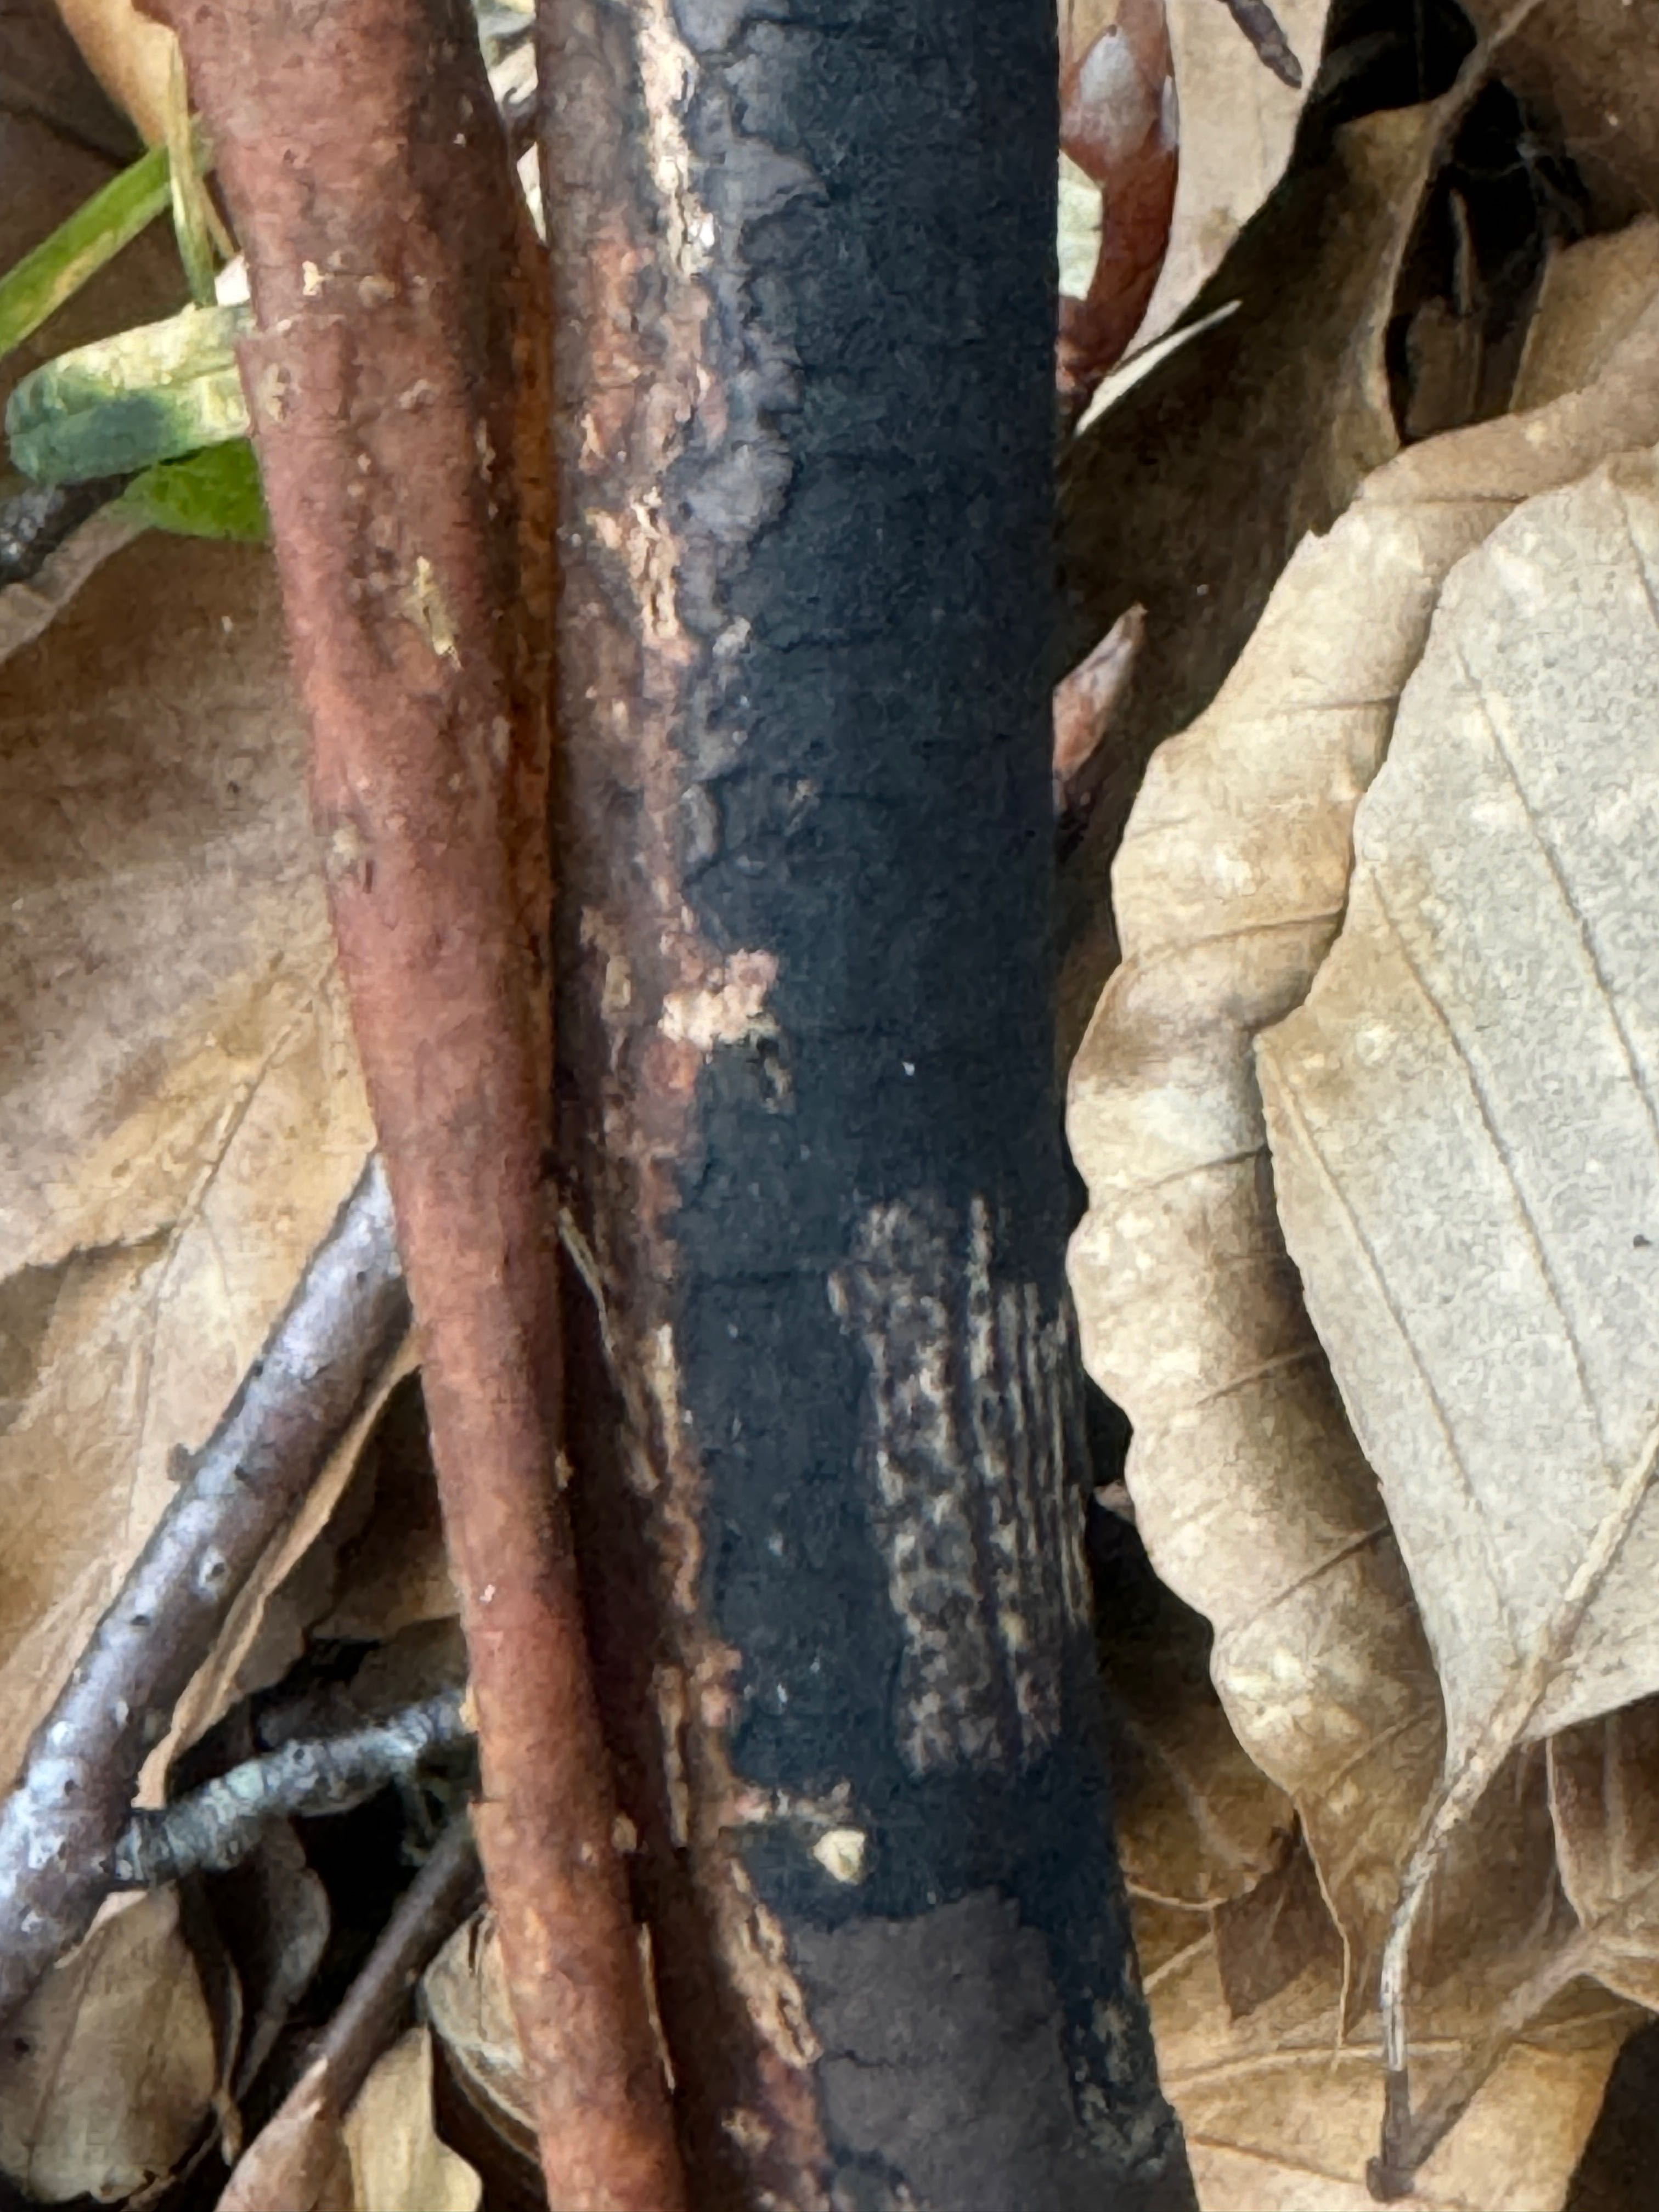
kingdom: Fungi
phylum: Ascomycota
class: Sordariomycetes
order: Xylariales
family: Diatrypaceae
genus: Diatrype
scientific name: Diatrype decorticata
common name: barksprænger-kulskorpe
